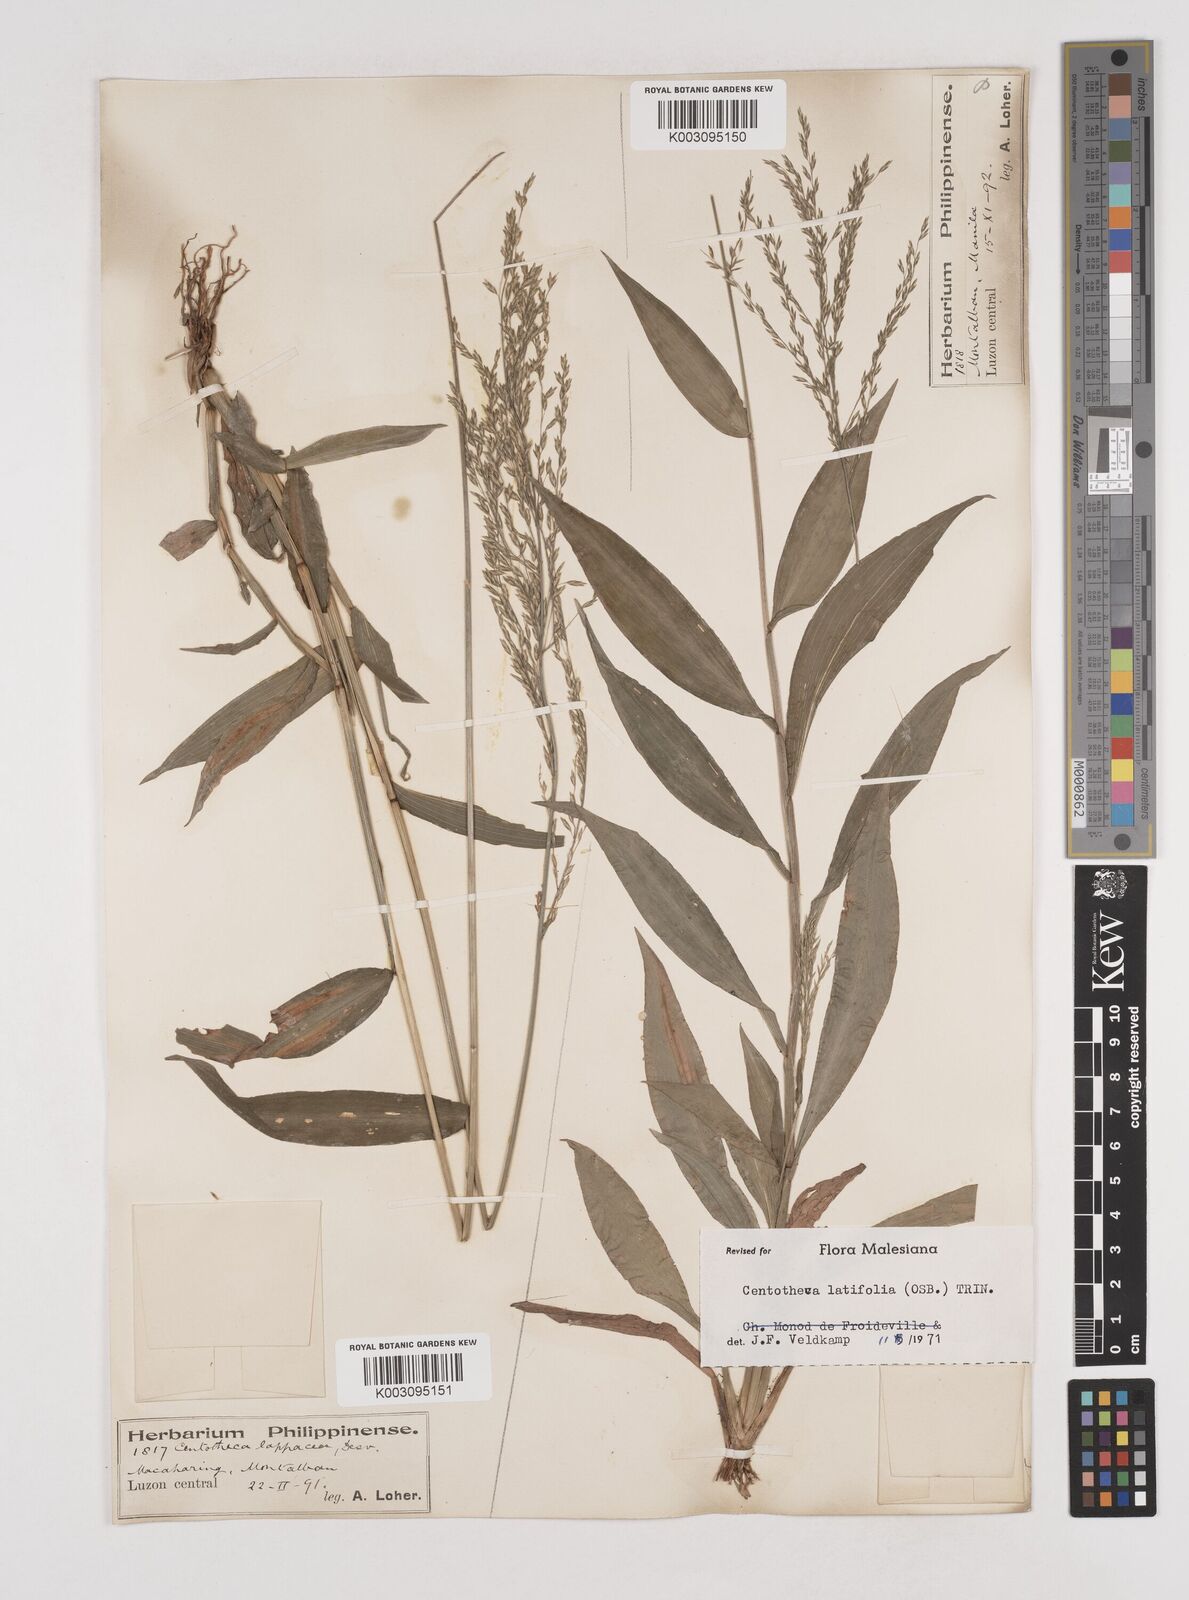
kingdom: Plantae
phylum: Tracheophyta
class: Liliopsida
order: Poales
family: Poaceae
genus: Centotheca
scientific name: Centotheca lappacea
